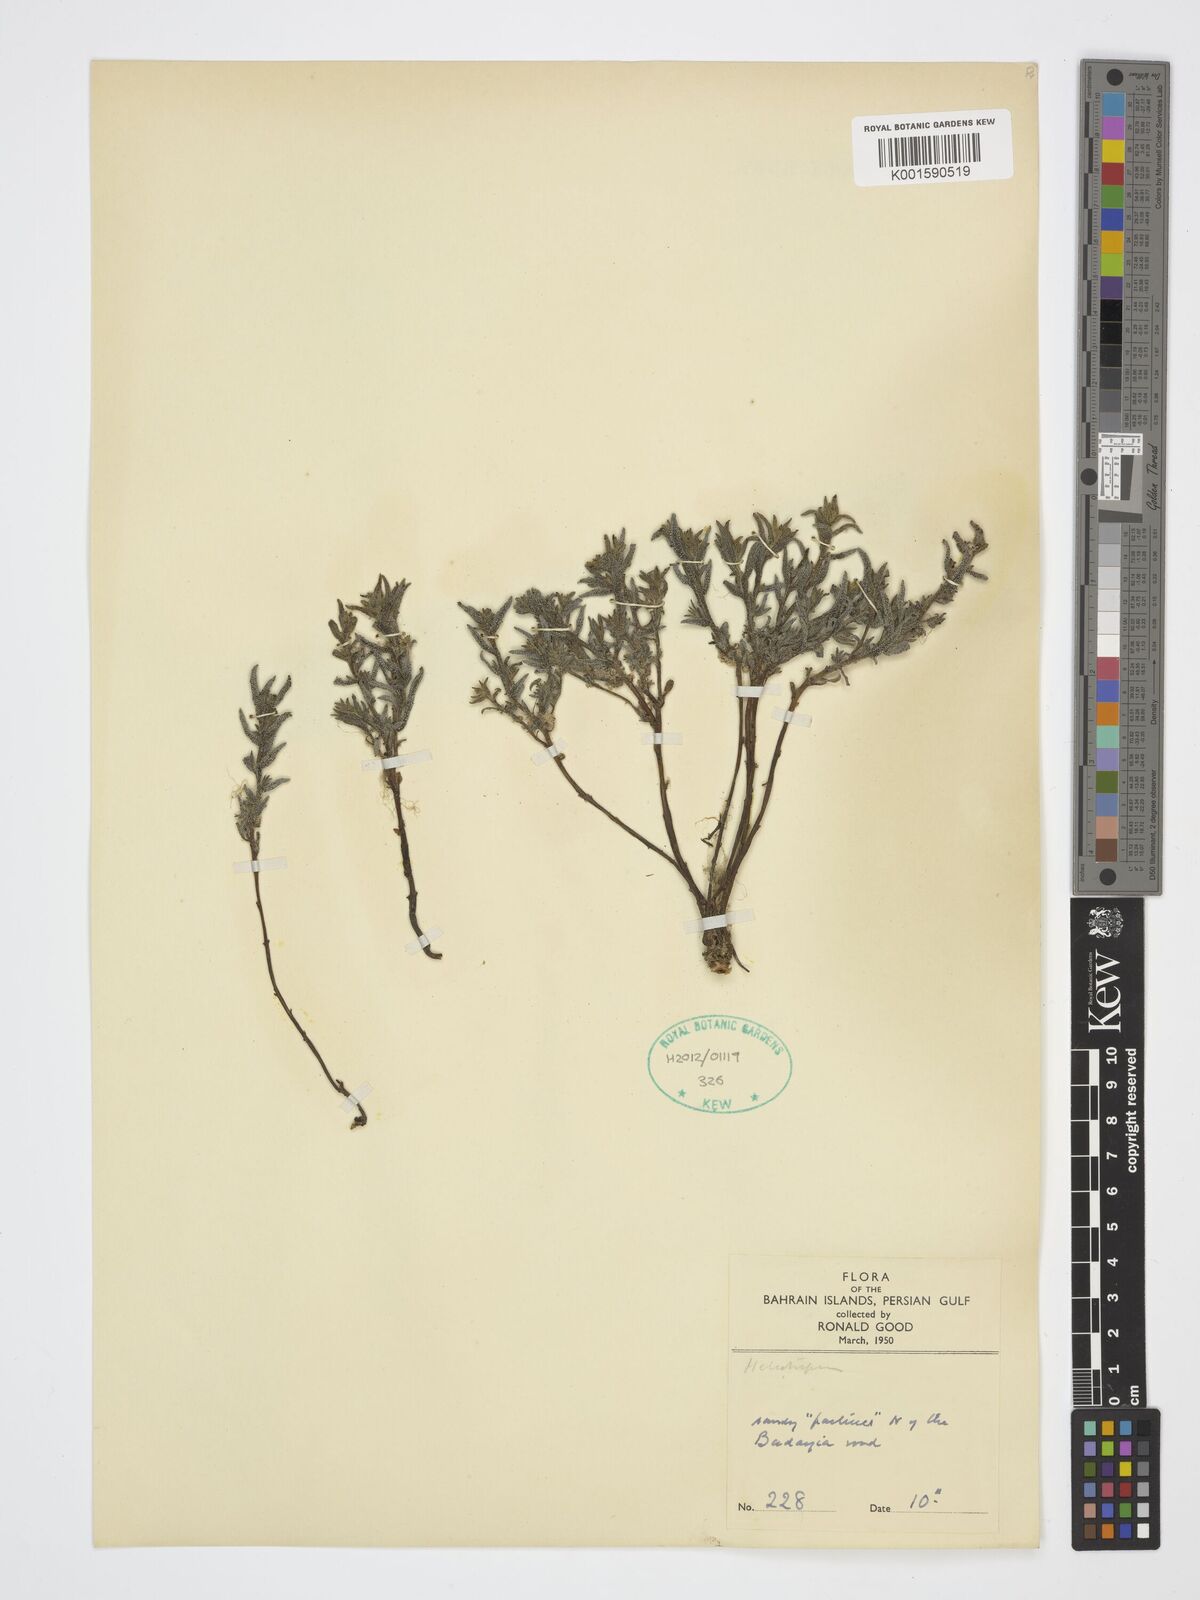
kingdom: Plantae
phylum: Tracheophyta
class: Magnoliopsida
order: Boraginales
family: Heliotropiaceae
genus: Heliotropium
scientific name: Heliotropium
